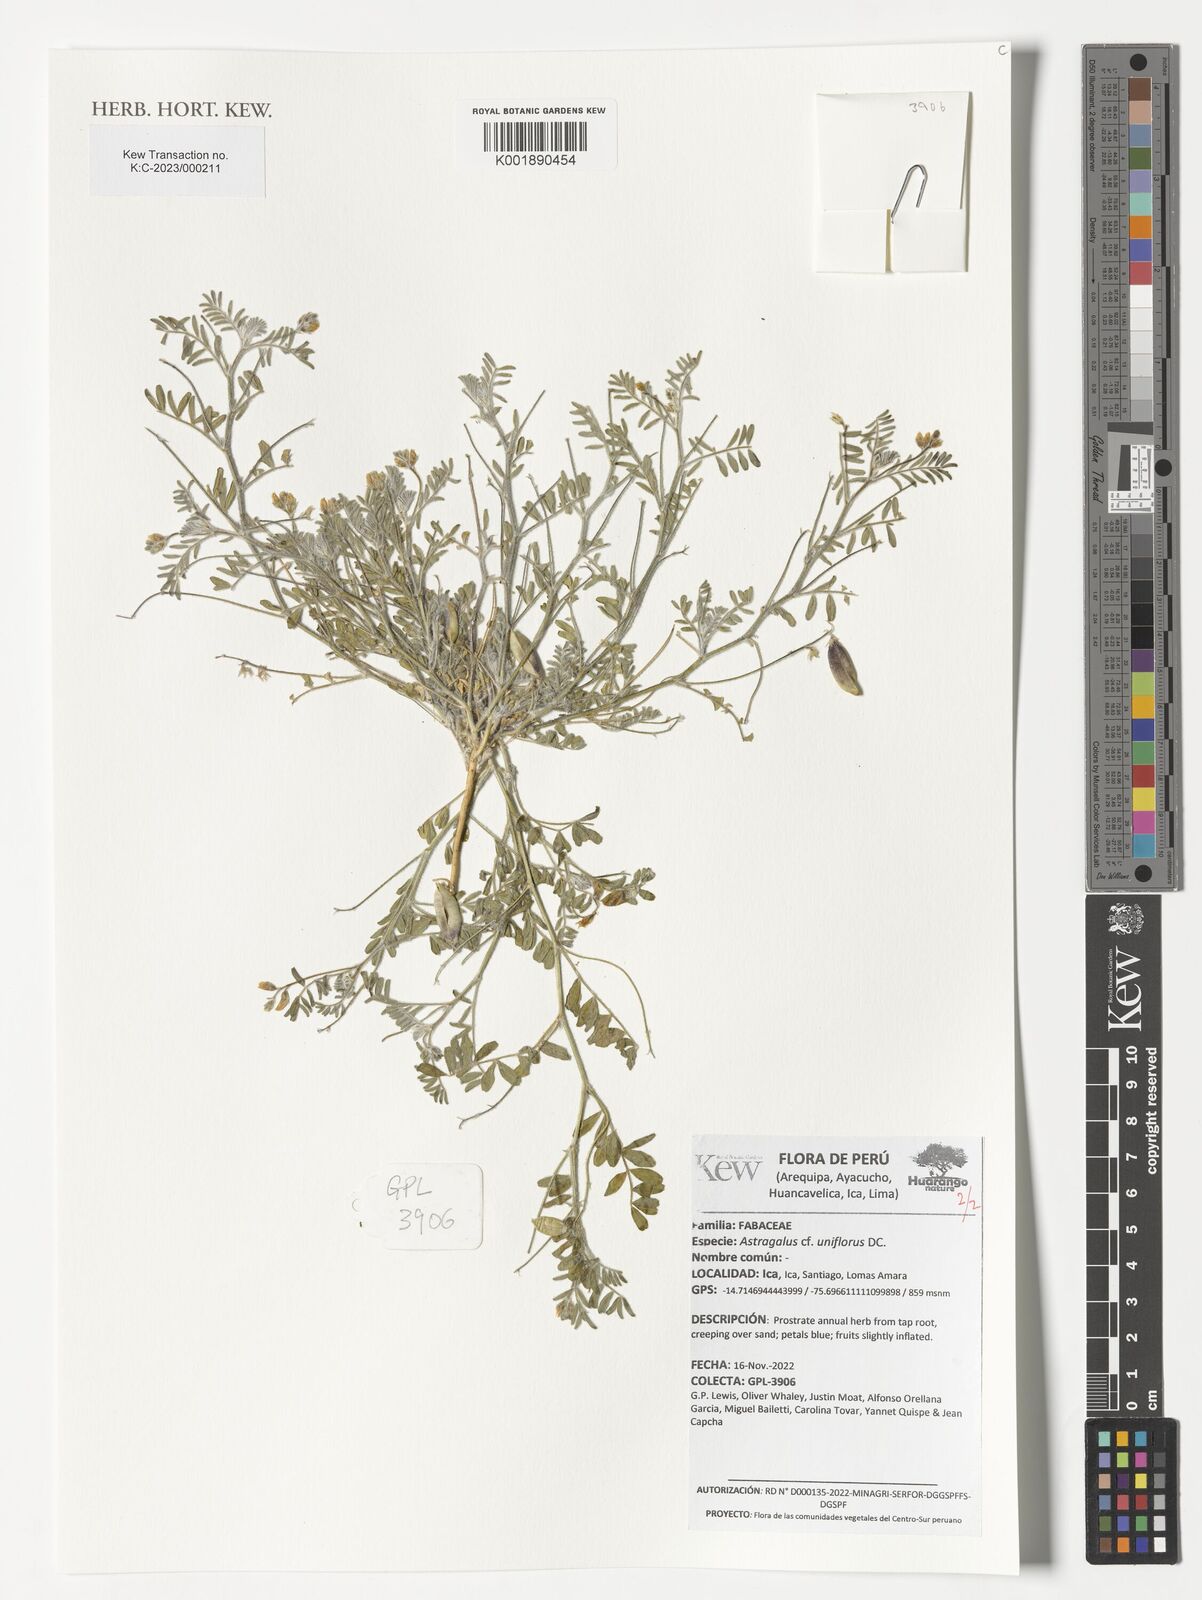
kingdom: Plantae
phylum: Tracheophyta
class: Magnoliopsida
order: Fabales
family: Fabaceae
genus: Astragalus
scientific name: Astragalus uniflorus
